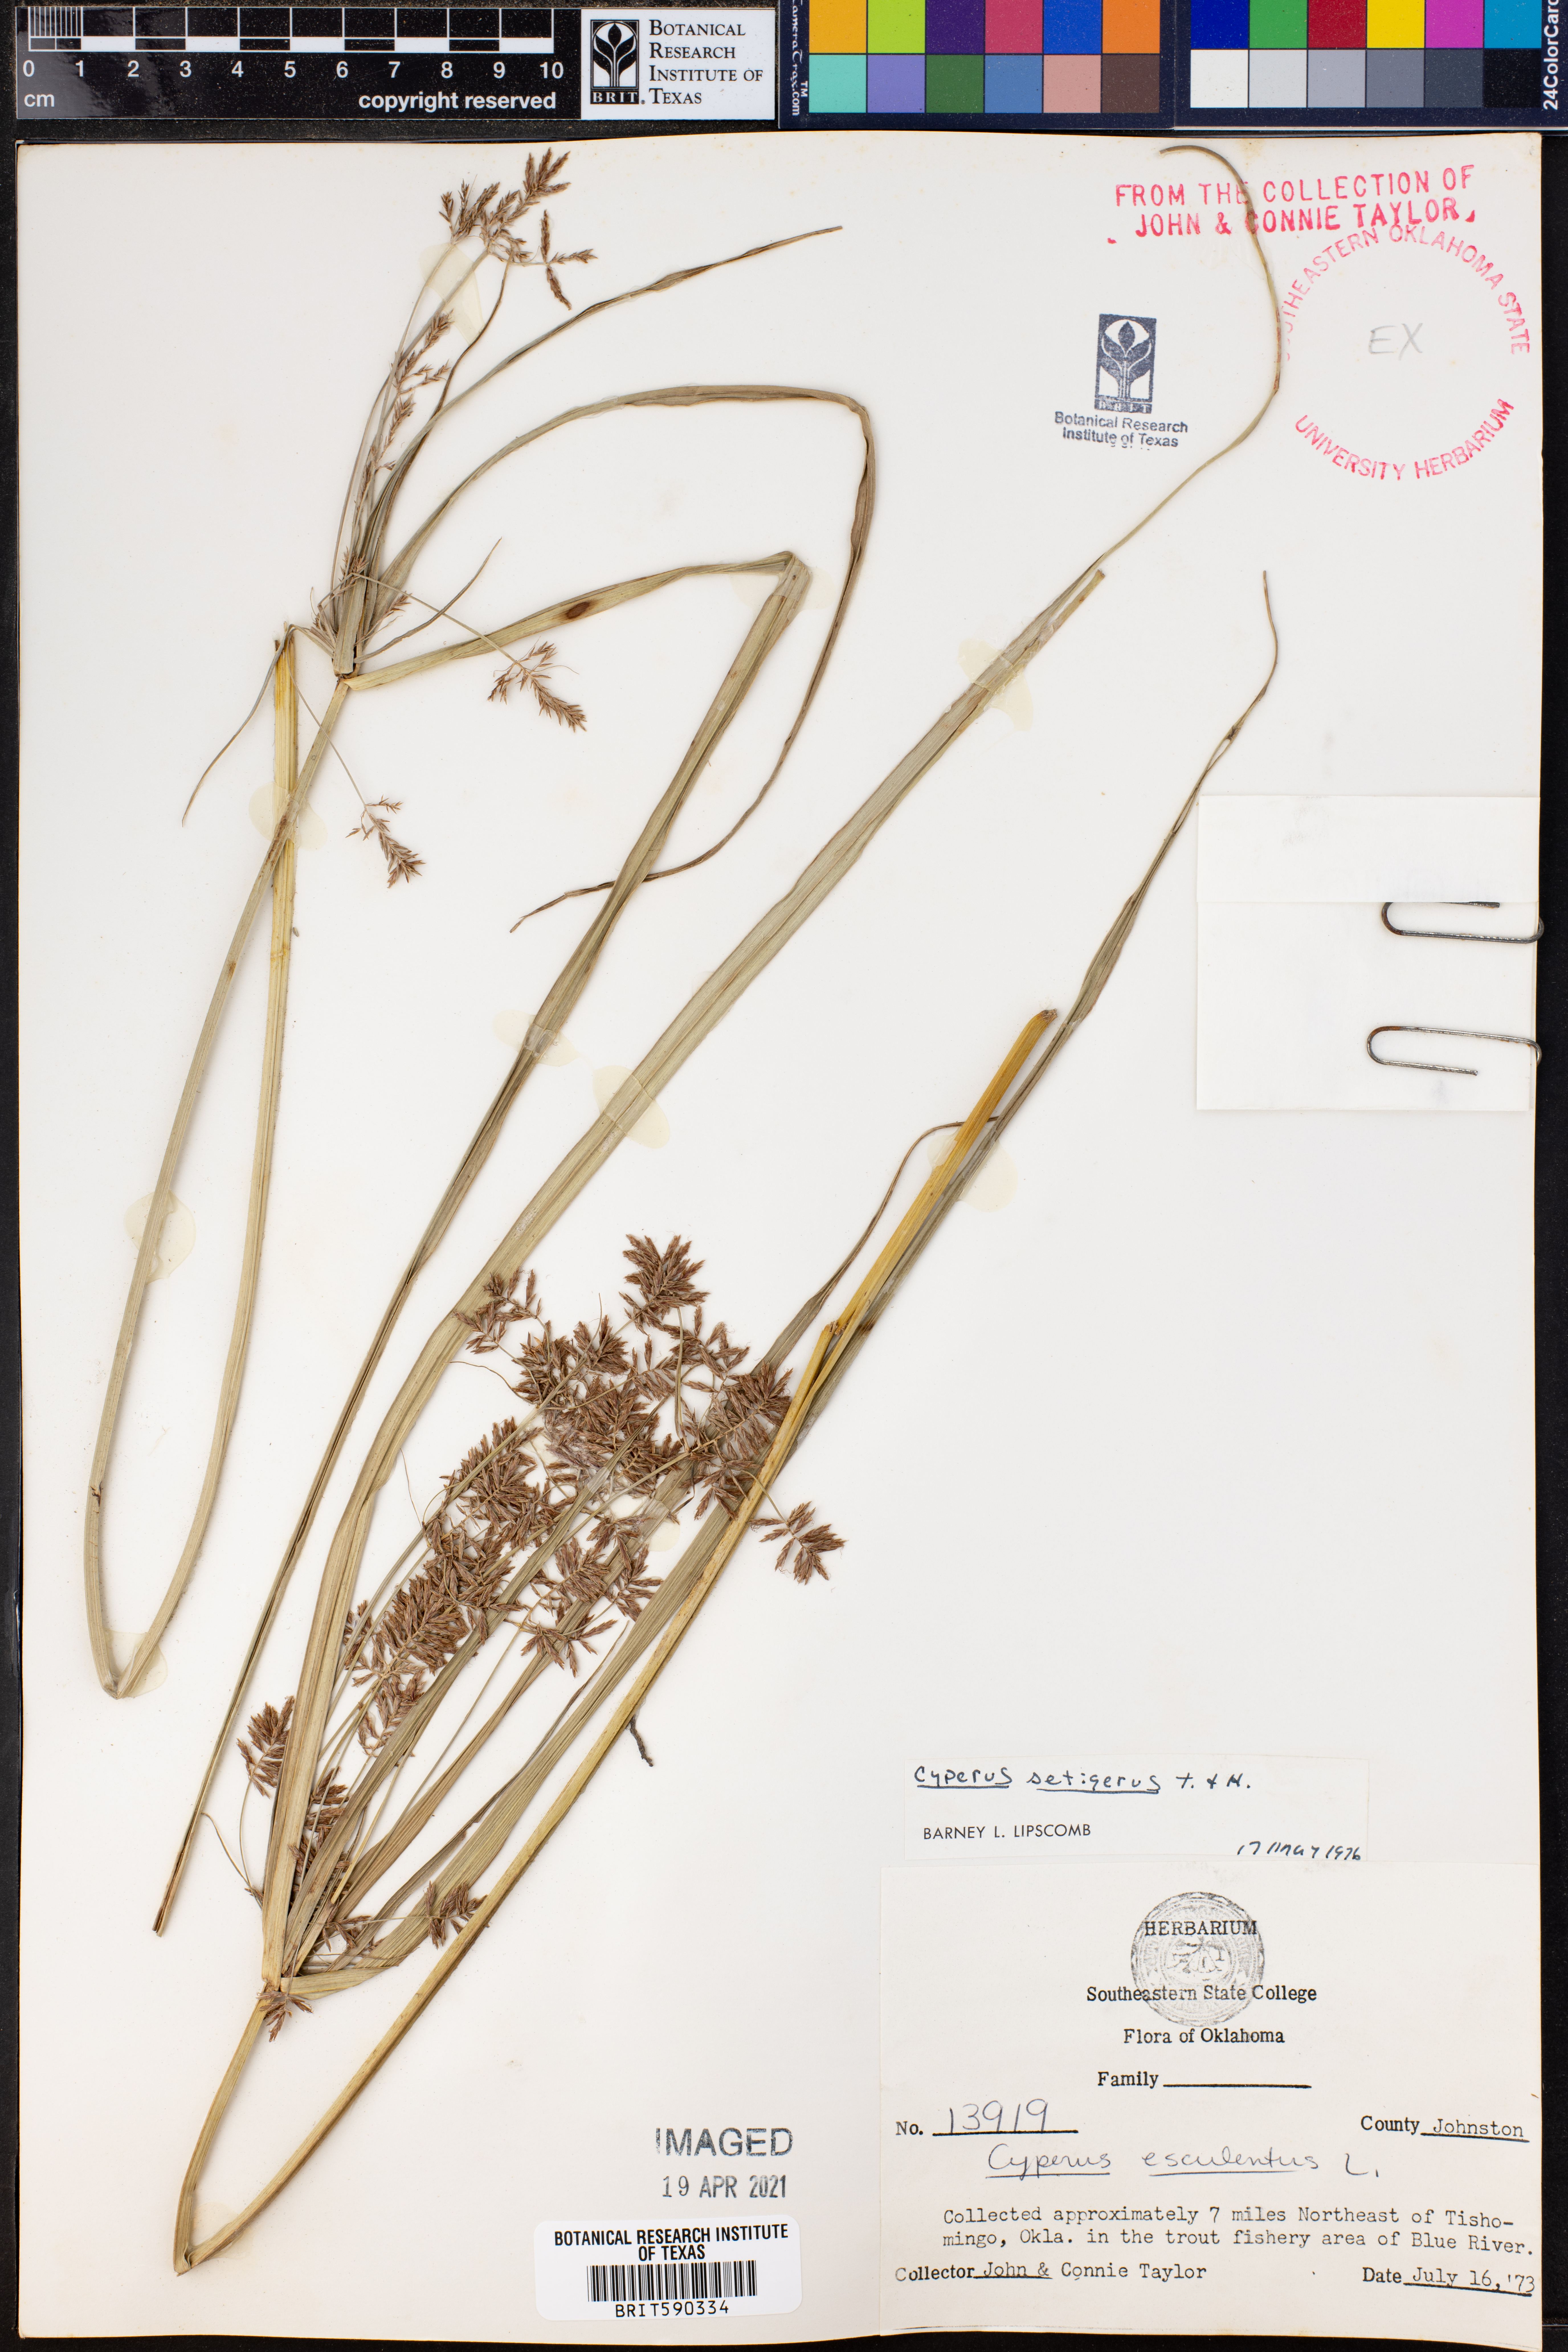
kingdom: Plantae
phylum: Tracheophyta
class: Liliopsida
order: Poales
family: Cyperaceae
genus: Cyperus
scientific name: Cyperus setigerus
